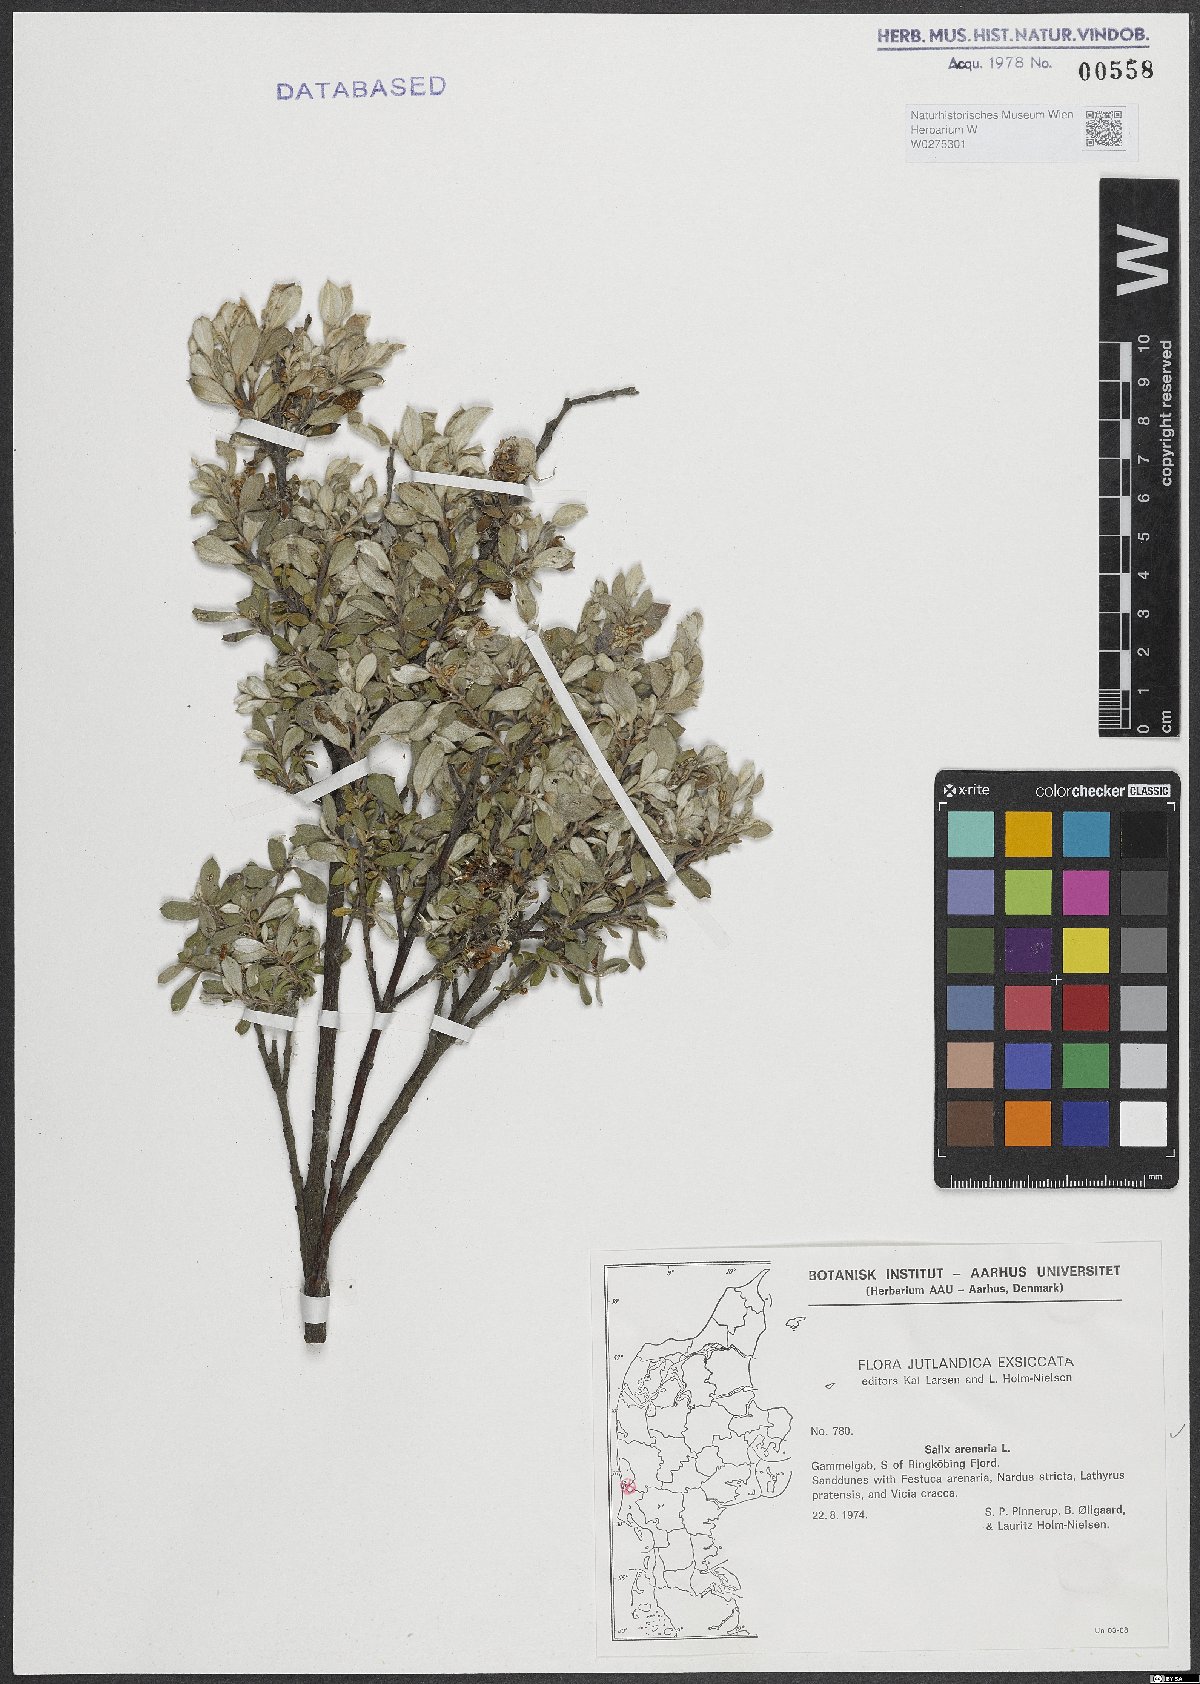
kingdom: Plantae
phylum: Tracheophyta
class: Magnoliopsida
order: Malpighiales
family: Salicaceae
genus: Salix
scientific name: Salix repens
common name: Creeping willow
